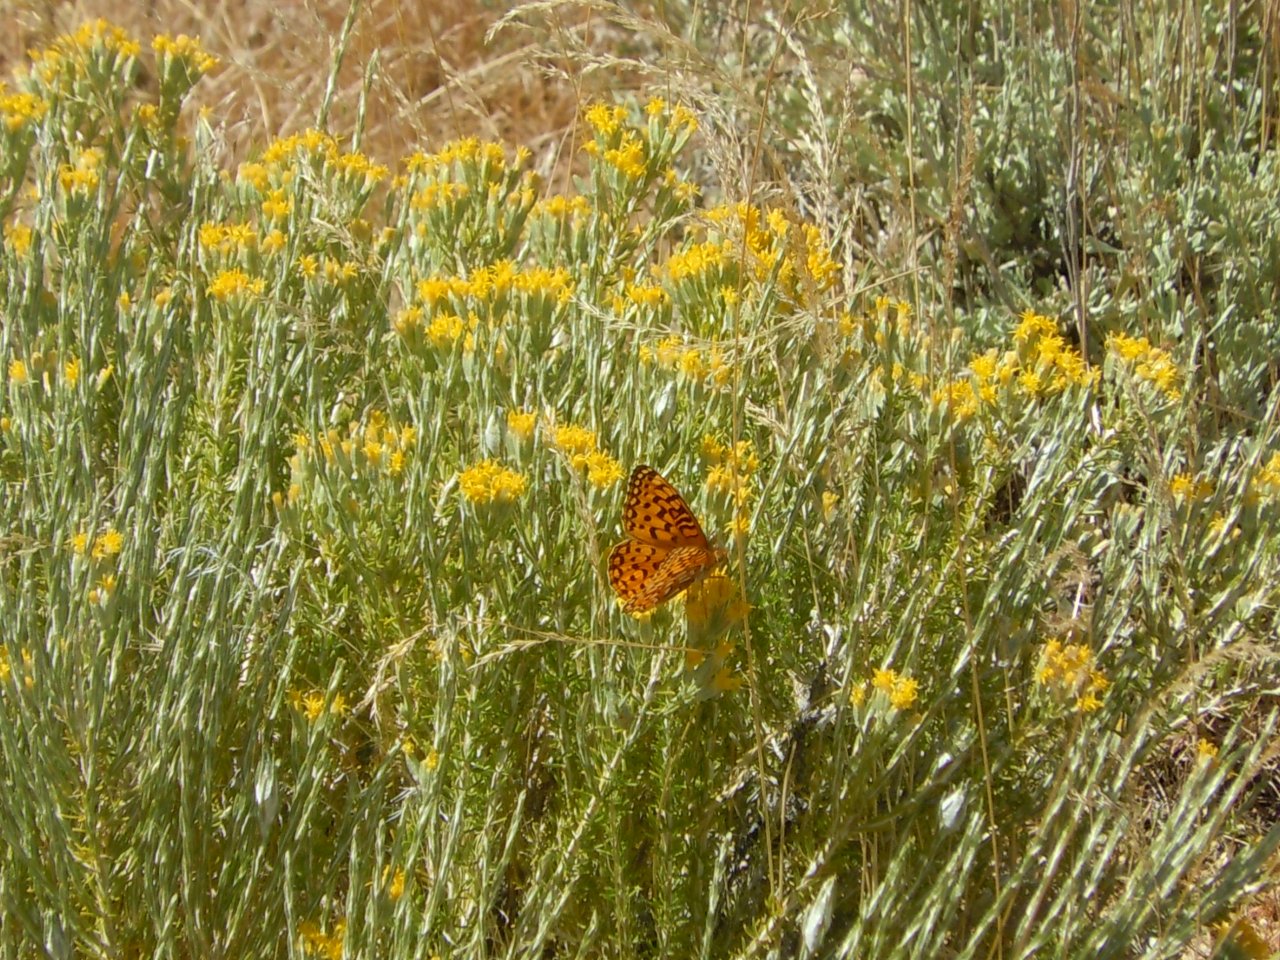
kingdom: Animalia
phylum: Arthropoda
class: Insecta
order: Lepidoptera
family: Nymphalidae
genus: Speyeria
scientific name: Speyeria callippe
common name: Callippe Fritillary
